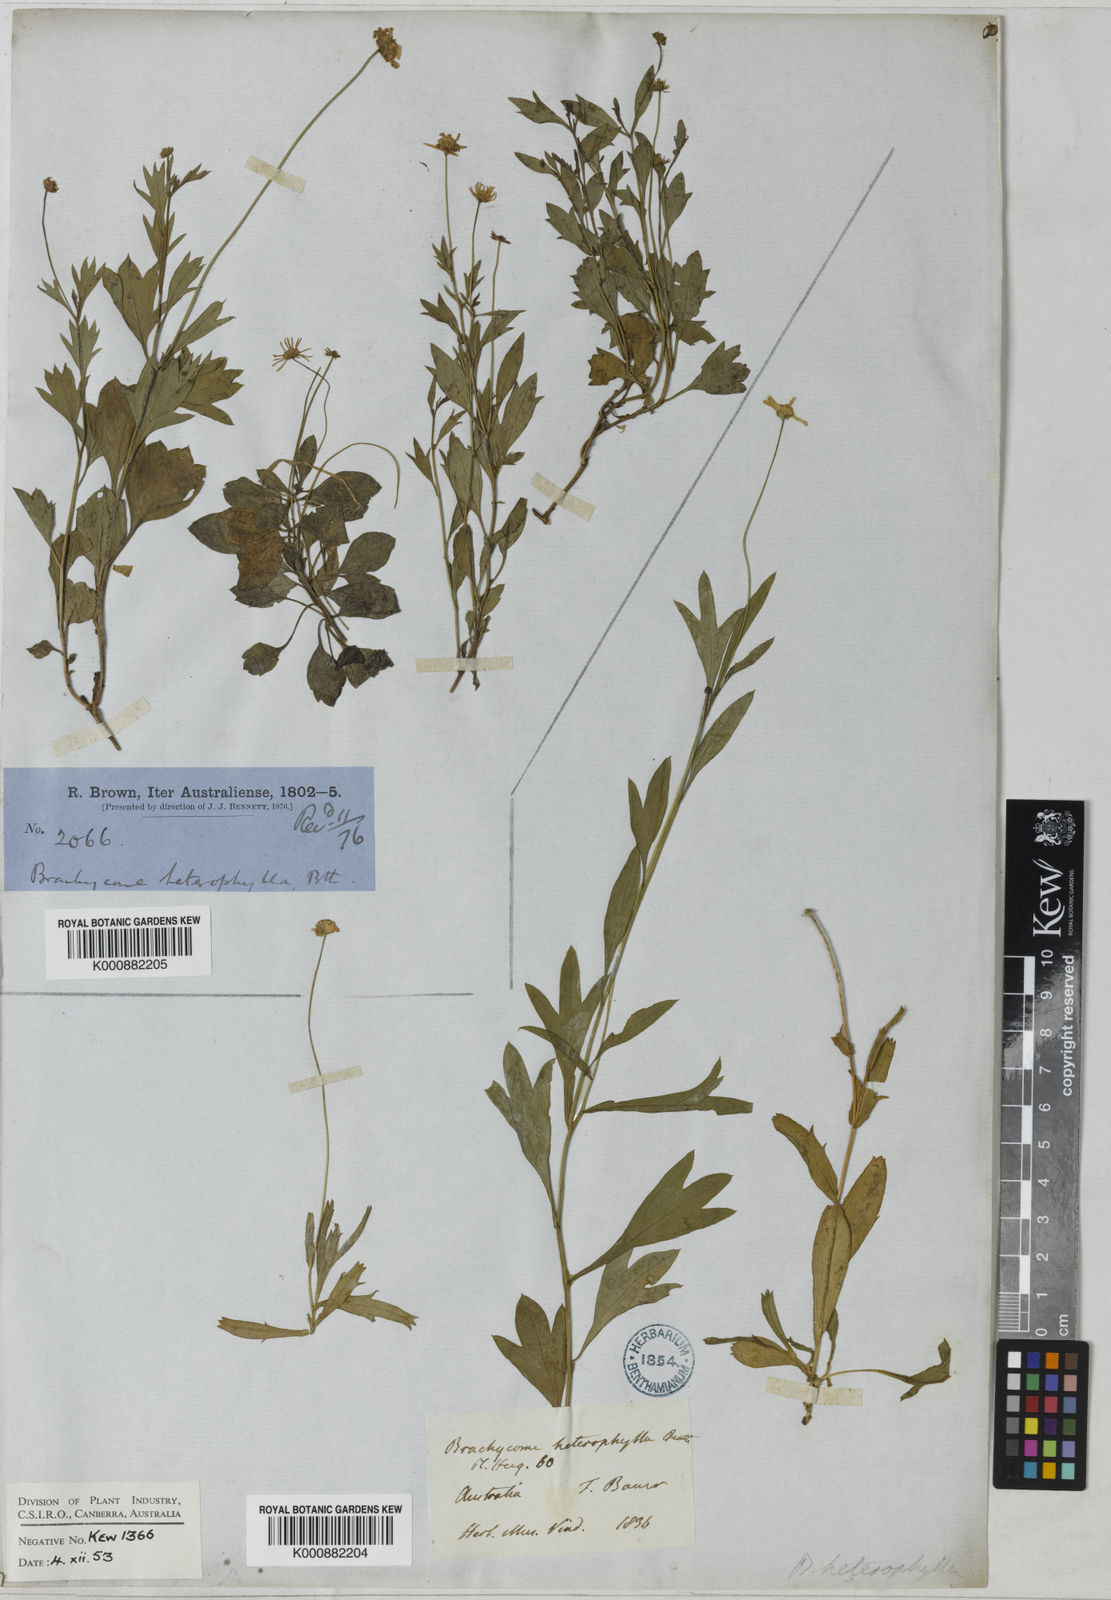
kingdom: Plantae
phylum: Tracheophyta
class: Magnoliopsida
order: Asterales
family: Asteraceae
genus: Vittadinia
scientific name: Vittadinia triloba
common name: Fuzzweed
